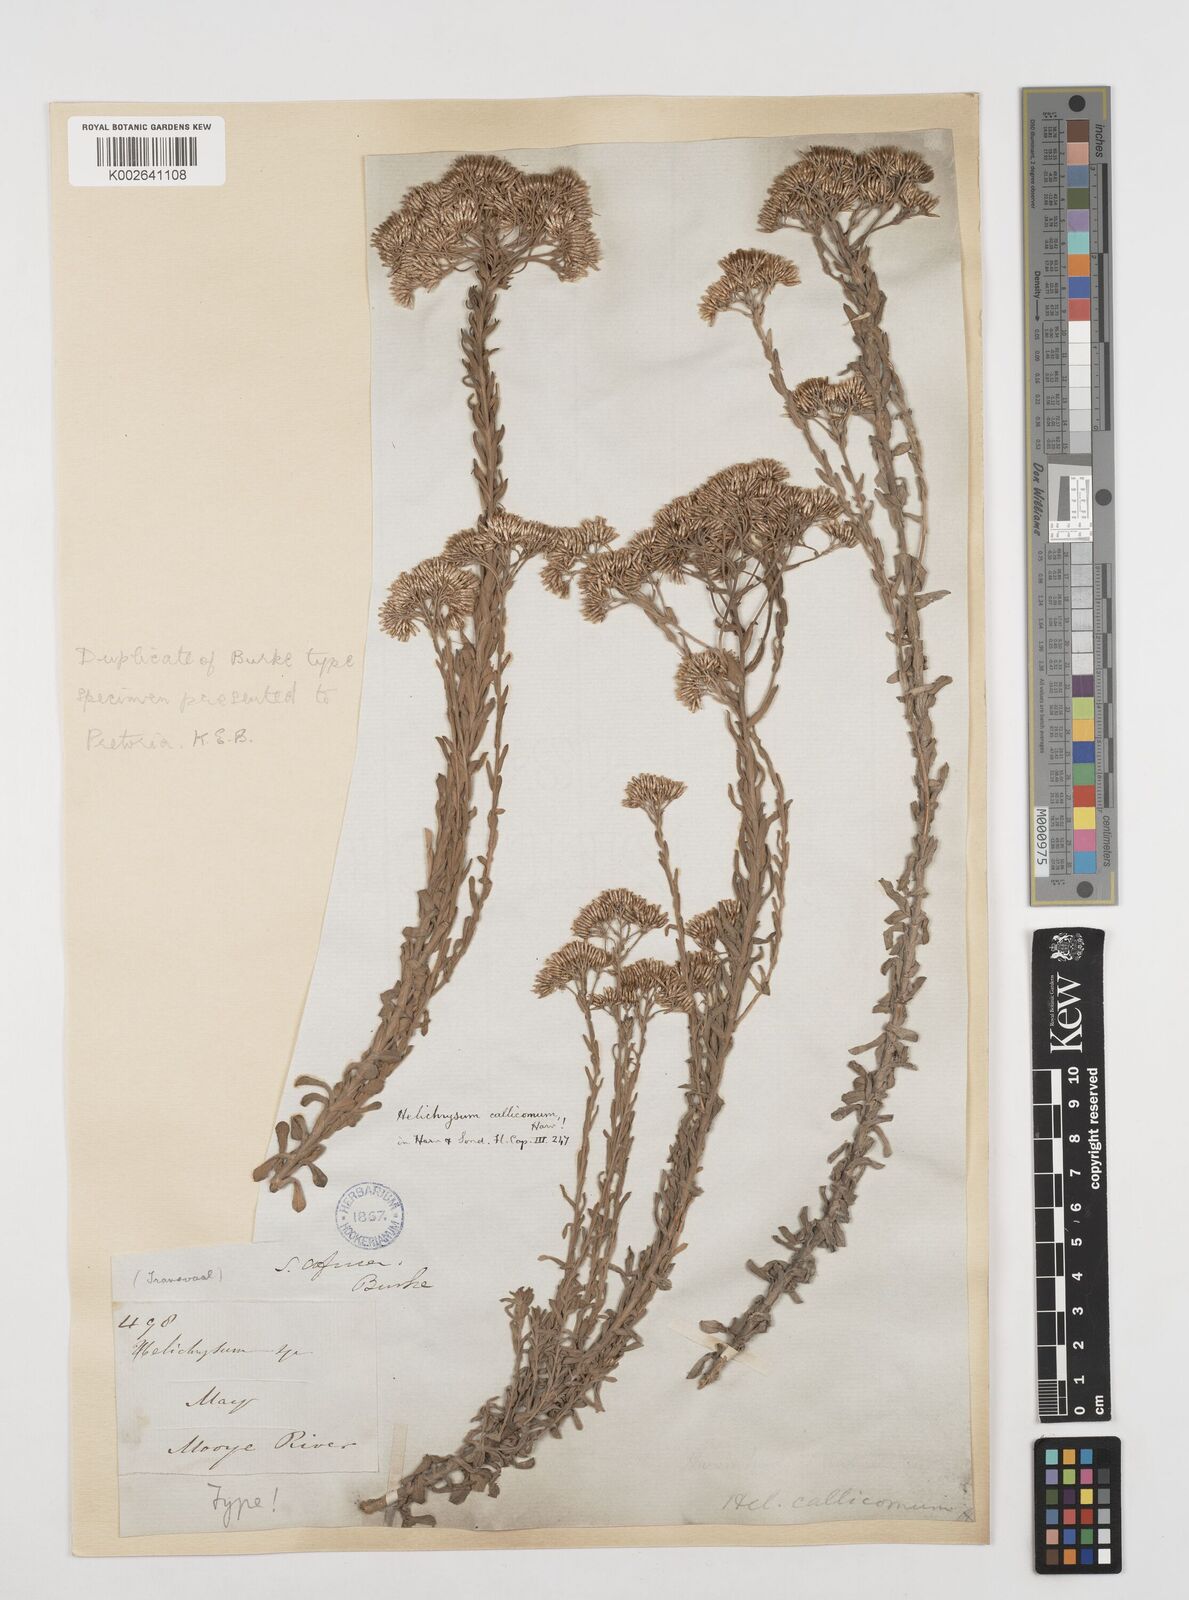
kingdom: Plantae
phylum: Tracheophyta
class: Magnoliopsida
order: Asterales
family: Asteraceae
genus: Helichrysum
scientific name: Helichrysum callicomum
